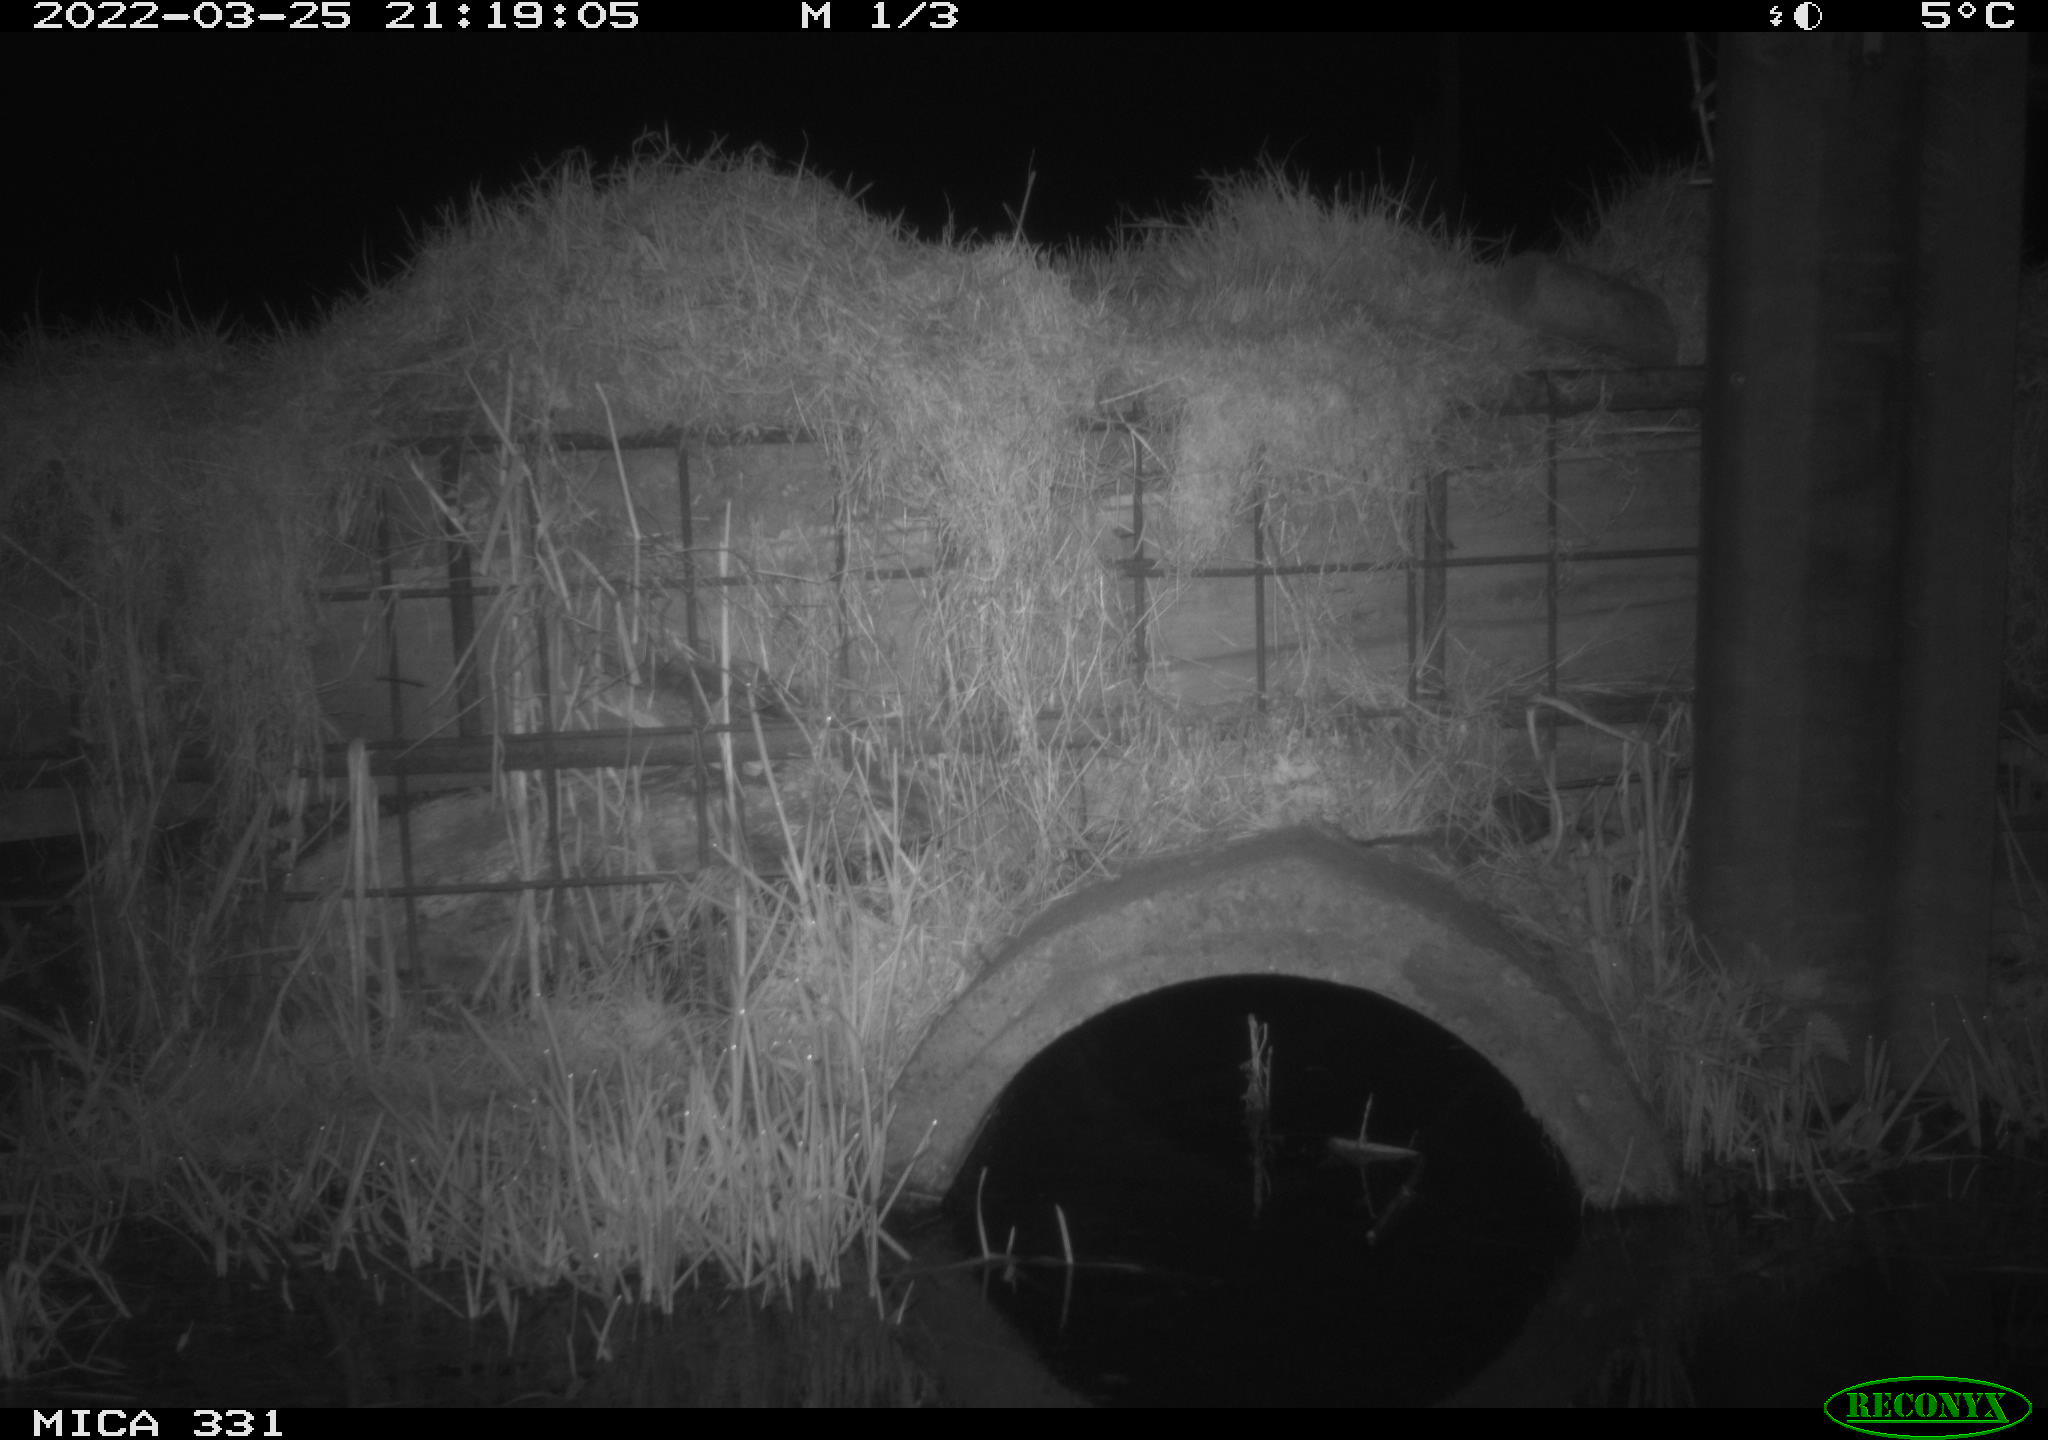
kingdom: Animalia
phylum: Chordata
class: Mammalia
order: Rodentia
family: Muridae
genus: Rattus
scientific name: Rattus norvegicus
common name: Brown rat
